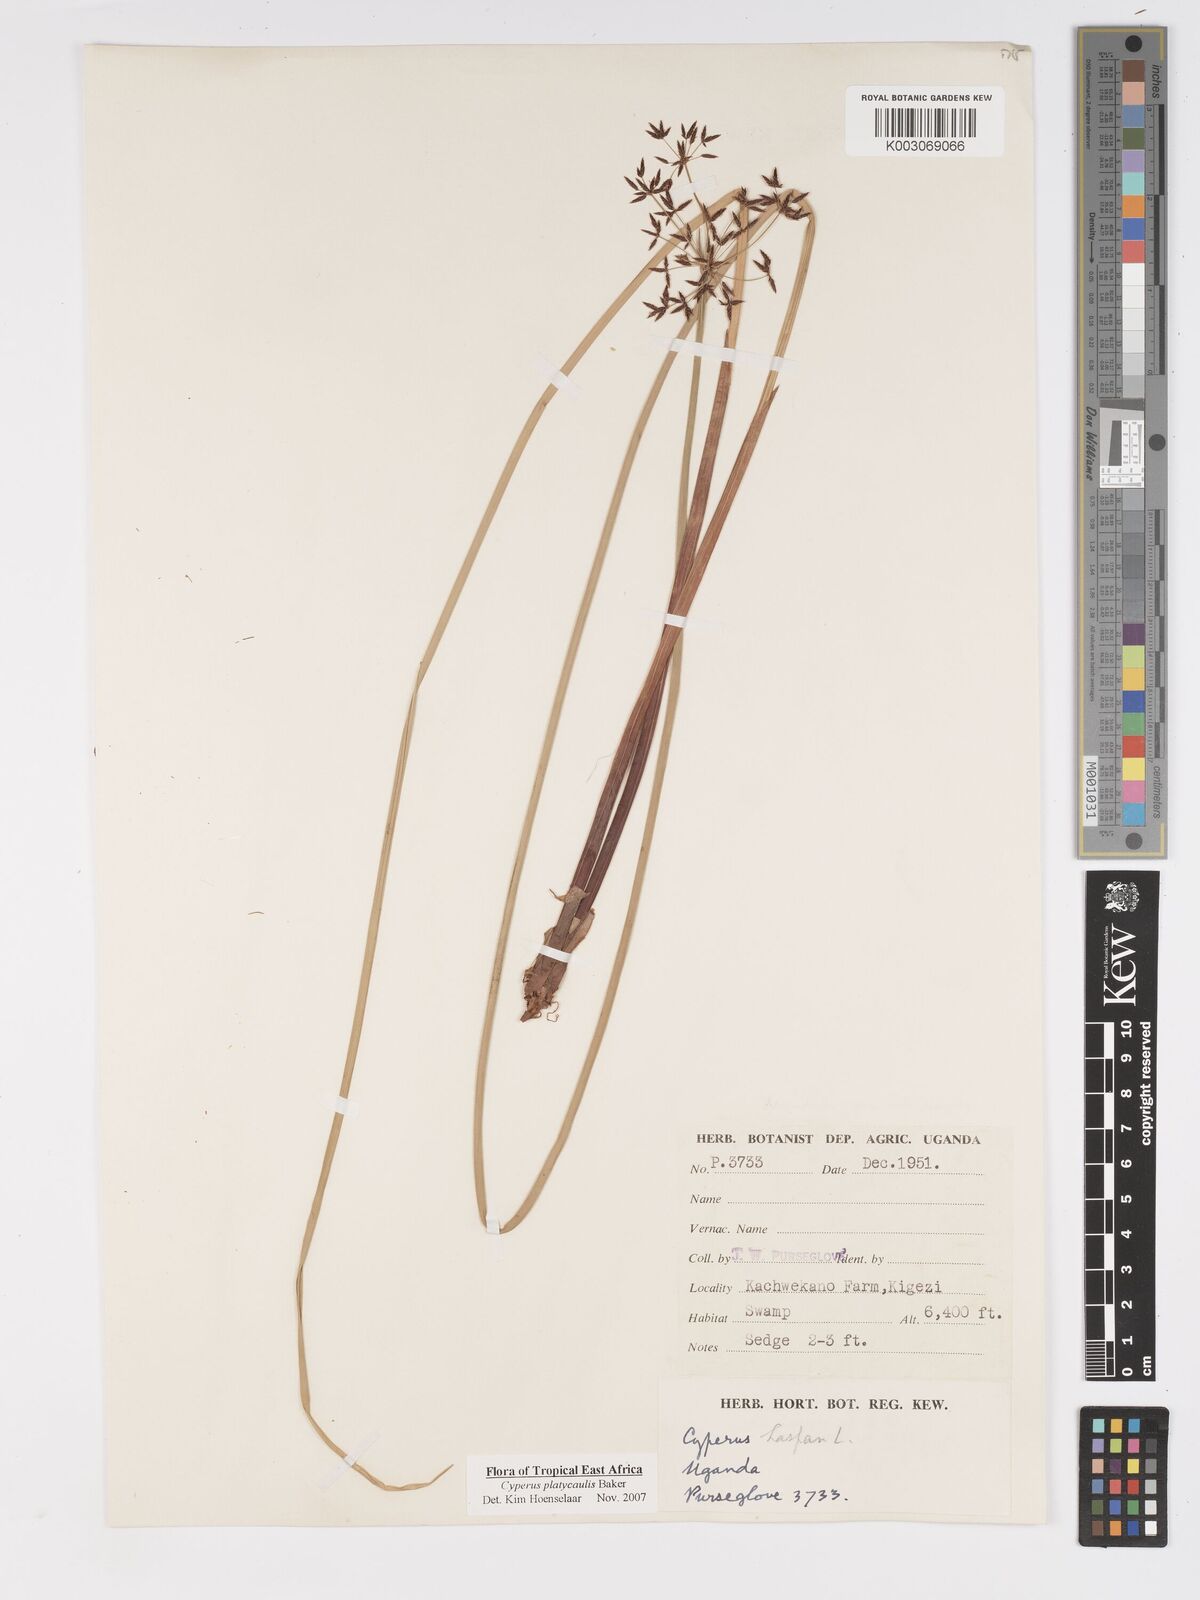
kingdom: Plantae
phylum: Tracheophyta
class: Liliopsida
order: Poales
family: Cyperaceae
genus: Cyperus
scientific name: Cyperus platycaulis
